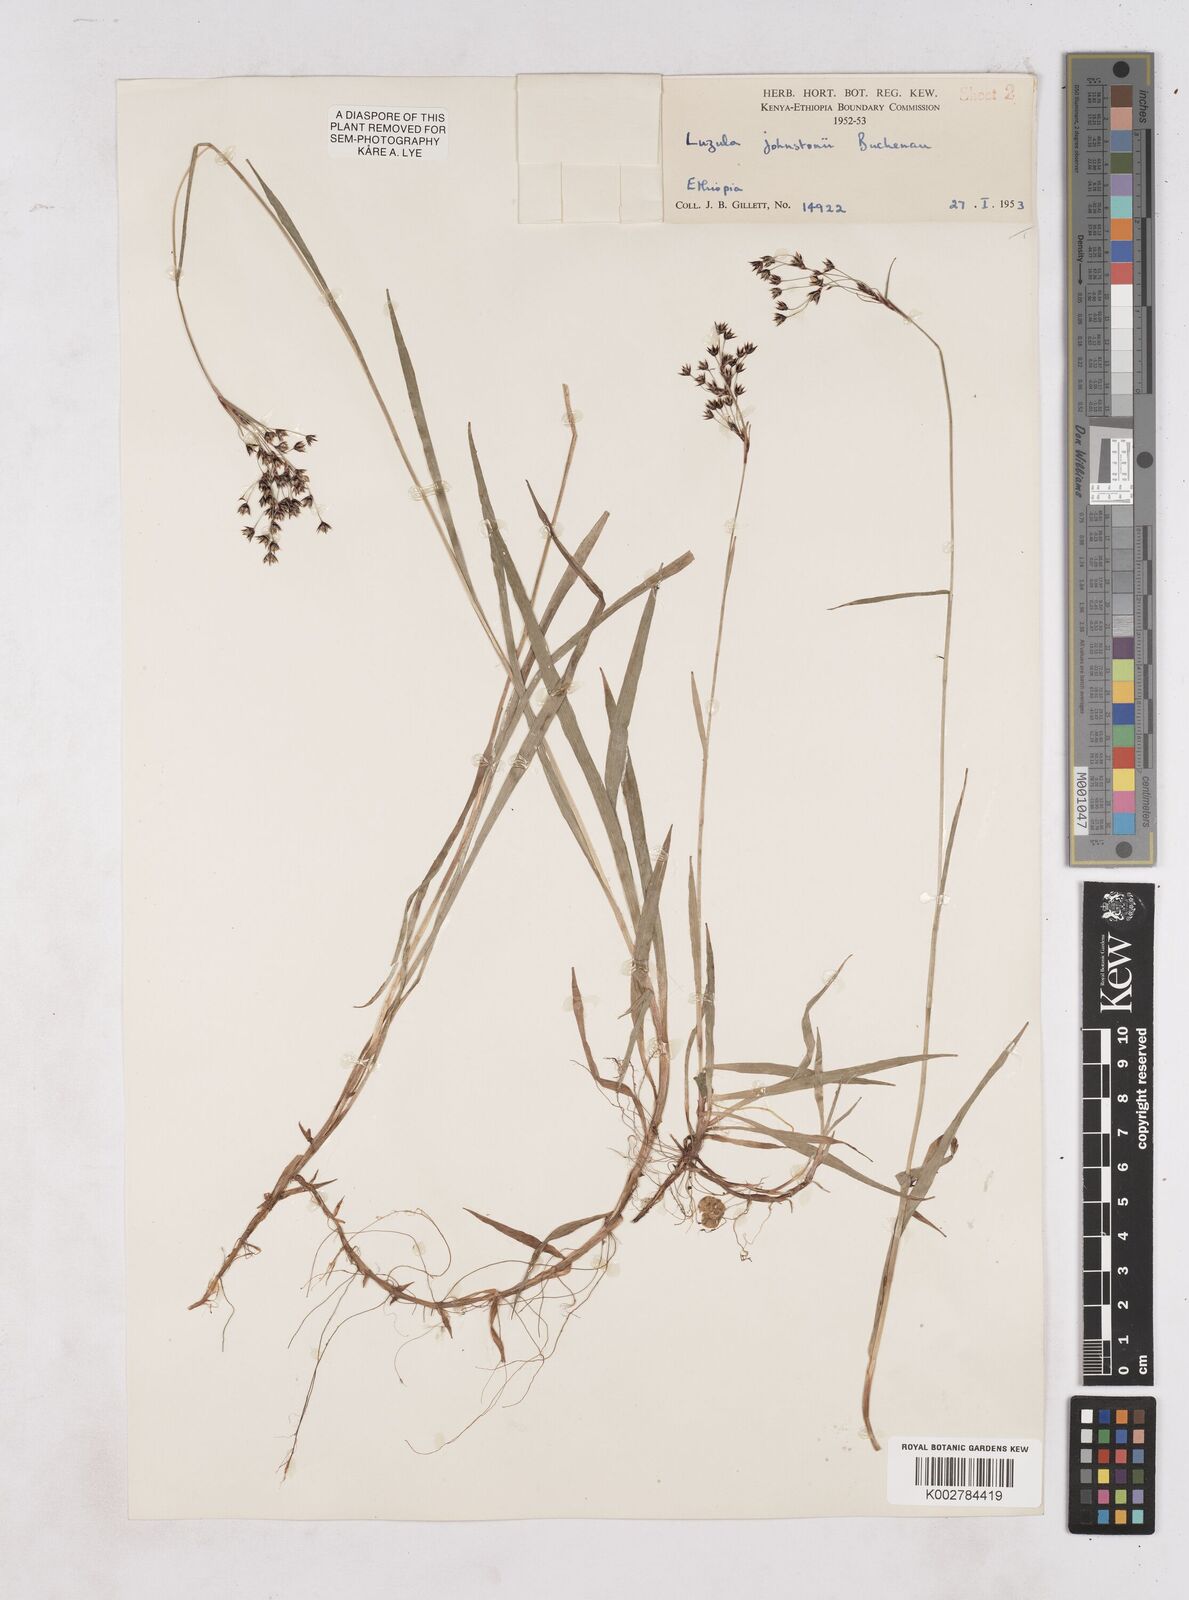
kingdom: Plantae
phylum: Tracheophyta
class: Liliopsida
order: Poales
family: Juncaceae
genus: Luzula
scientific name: Luzula johnstonii
